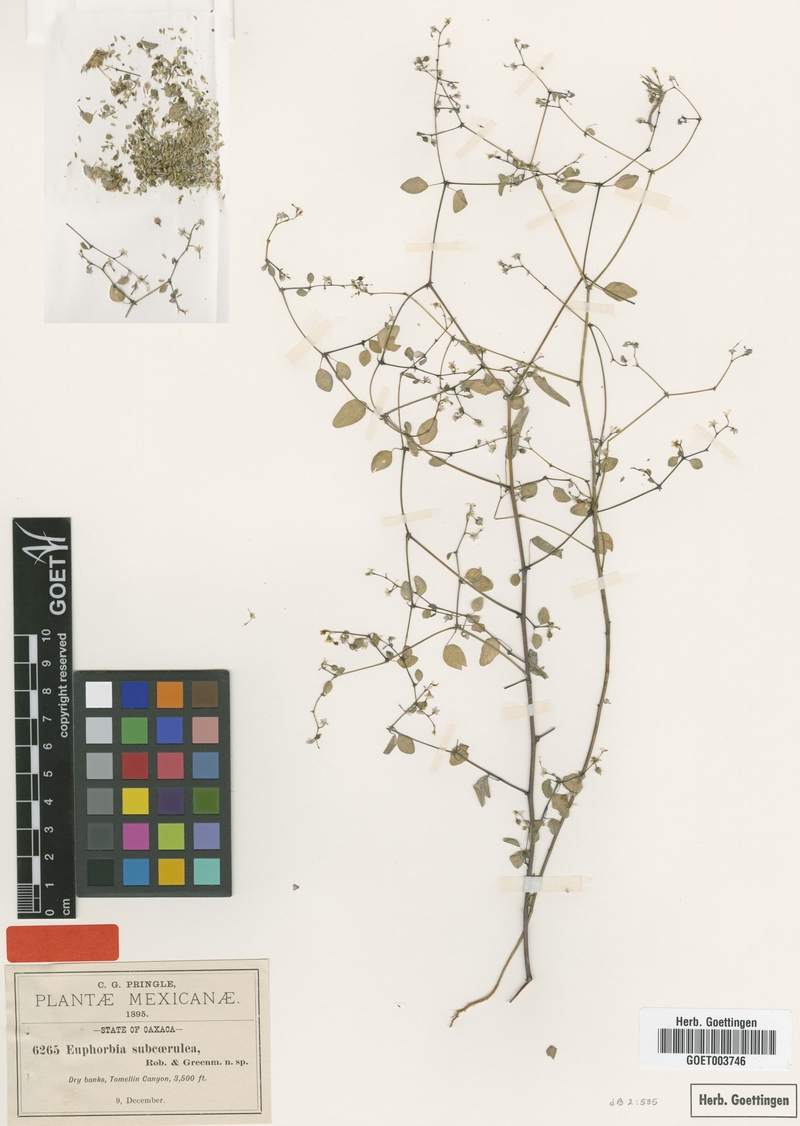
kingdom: Plantae
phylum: Tracheophyta
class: Magnoliopsida
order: Malpighiales
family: Euphorbiaceae
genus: Euphorbia
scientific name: Euphorbia delicatula
